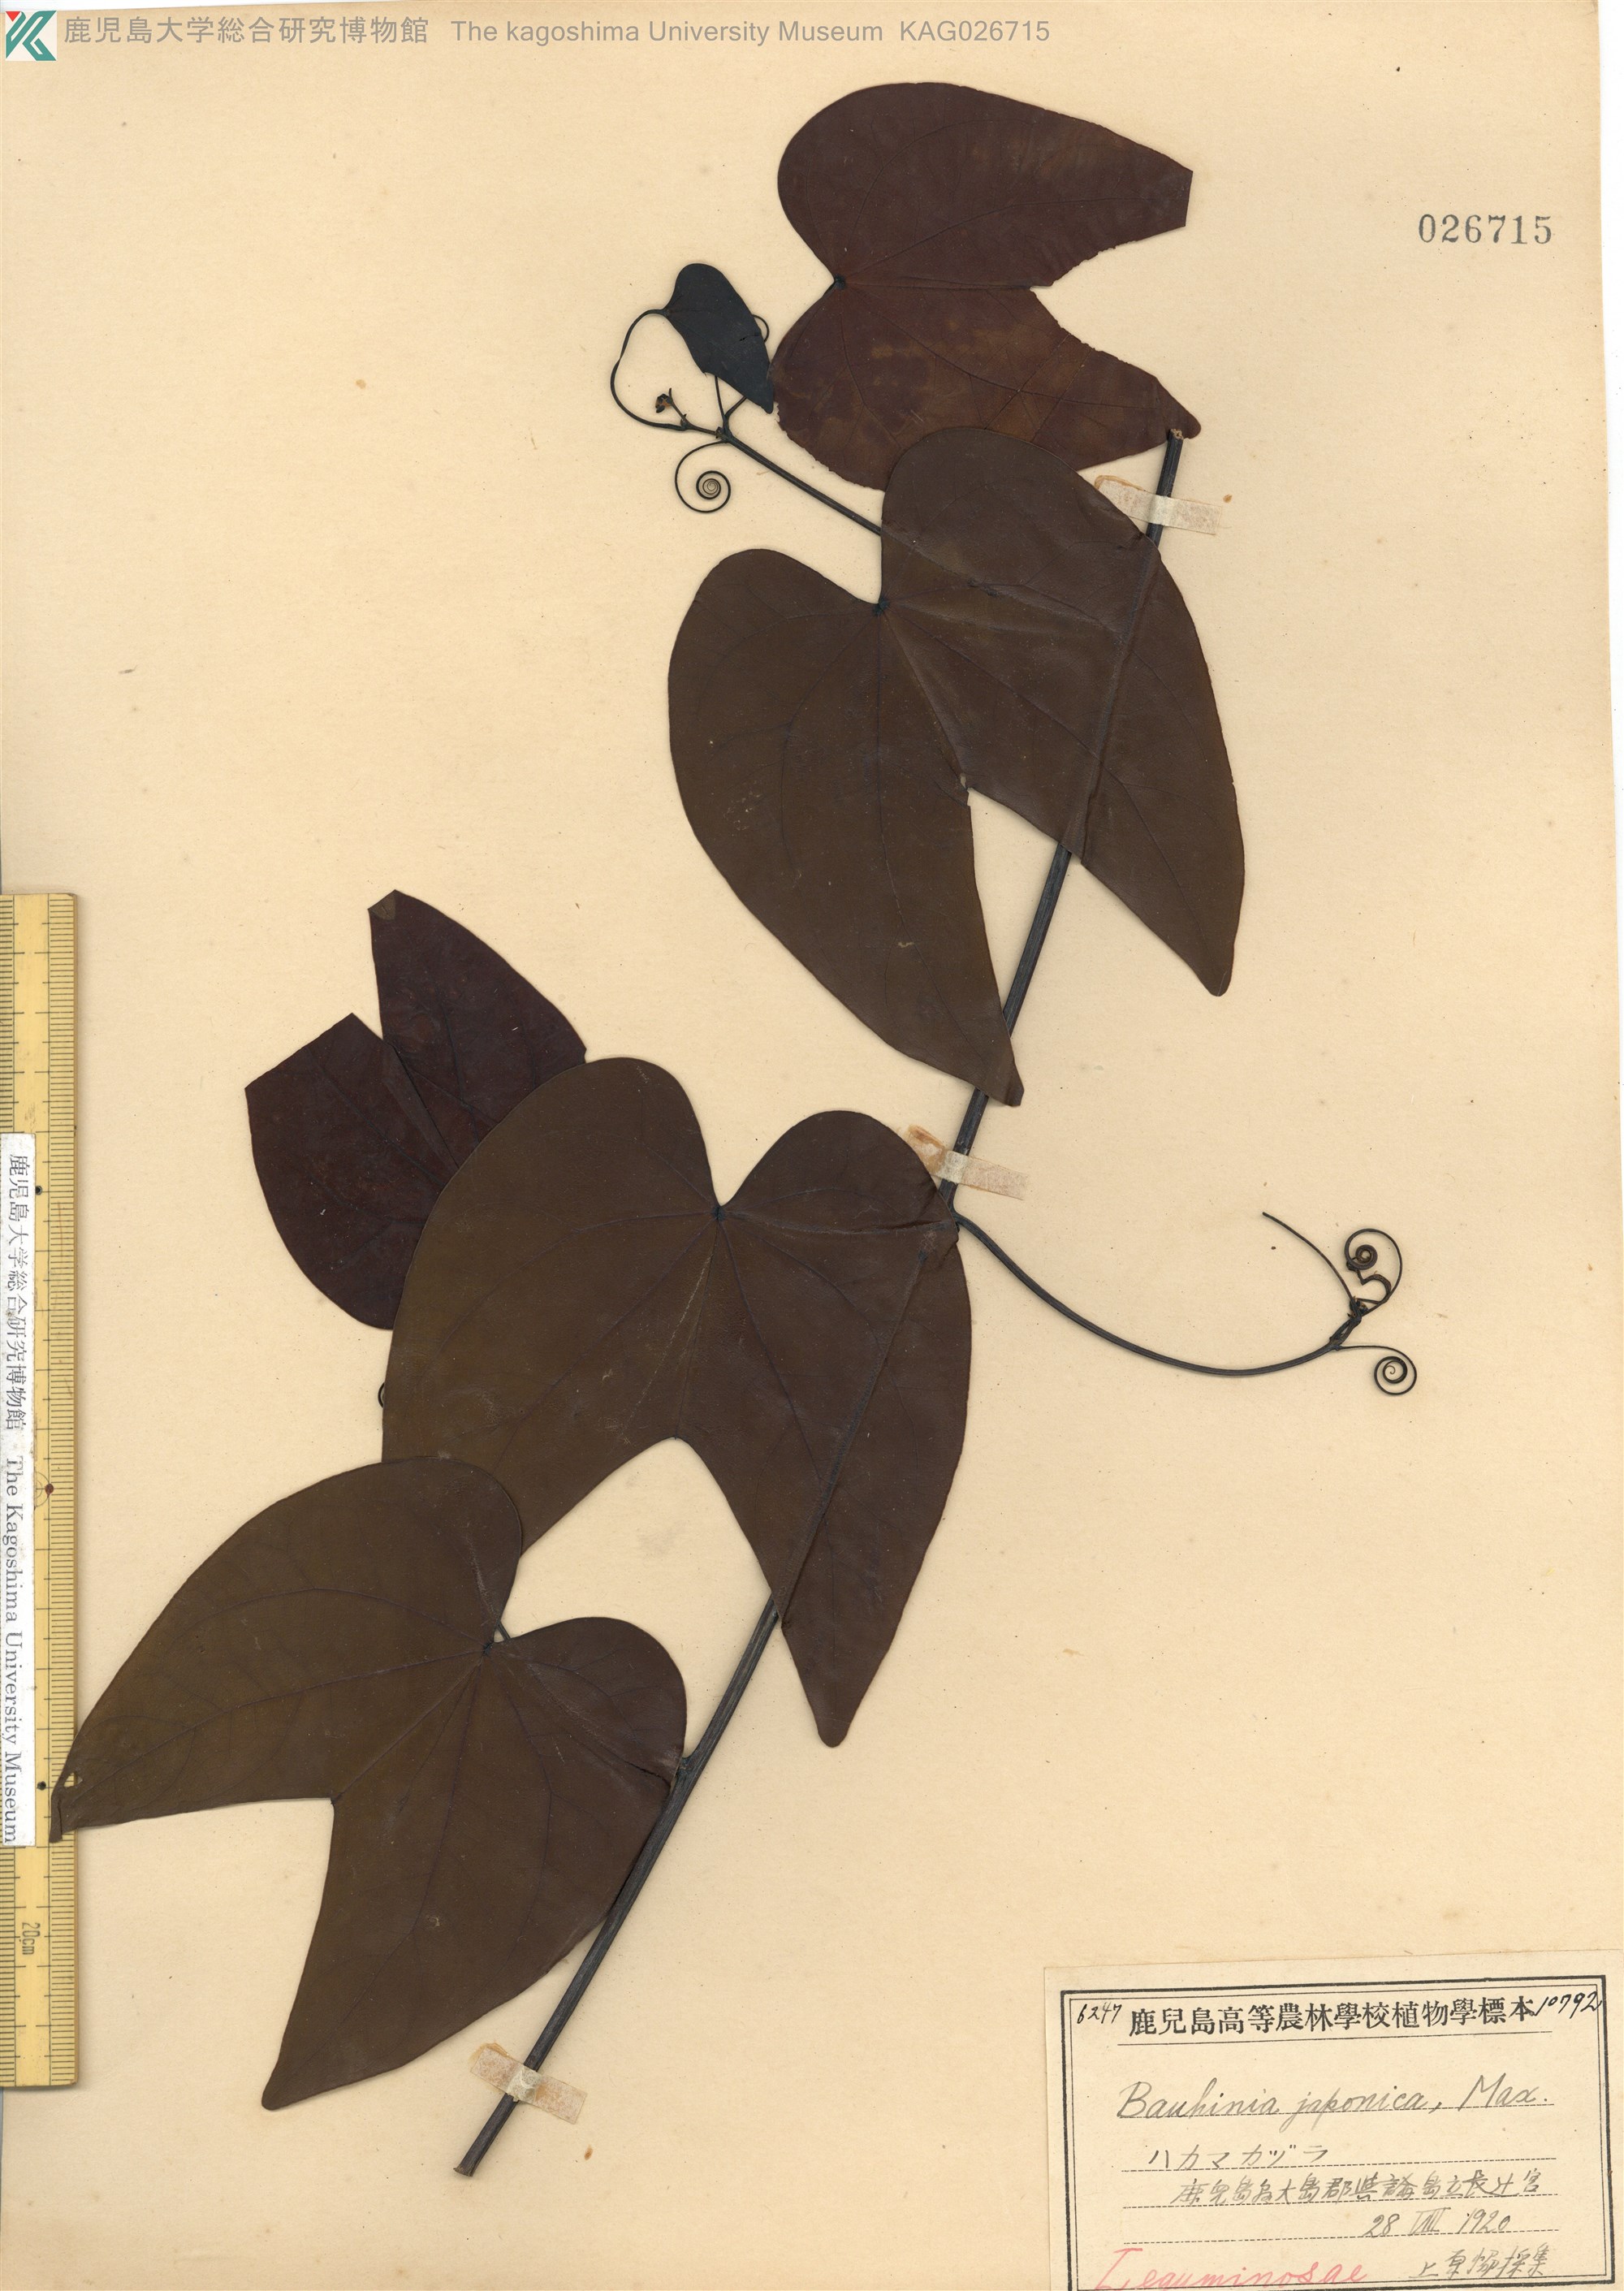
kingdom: Plantae
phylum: Tracheophyta
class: Magnoliopsida
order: Fabales
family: Fabaceae
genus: Phanera
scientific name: Phanera japonica
